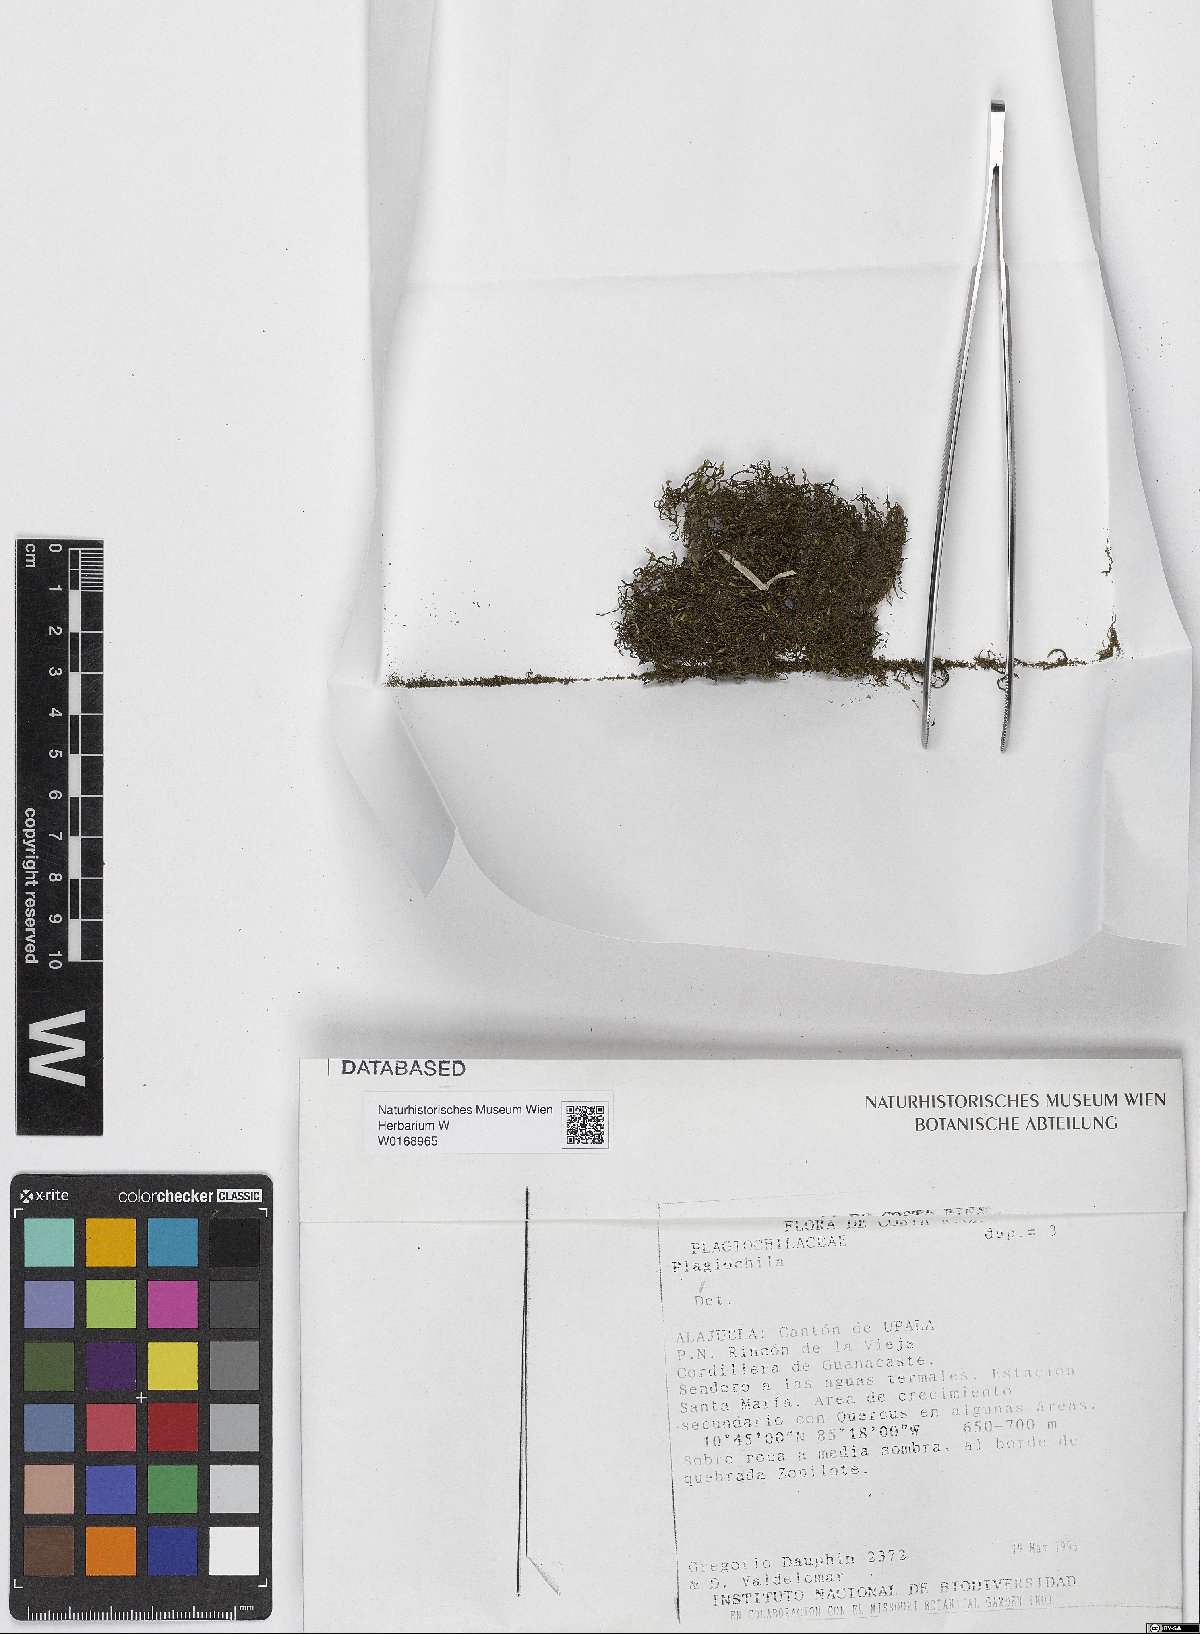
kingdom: Plantae
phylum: Marchantiophyta
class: Jungermanniopsida
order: Jungermanniales
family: Plagiochilaceae
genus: Plagiochila
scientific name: Plagiochila
